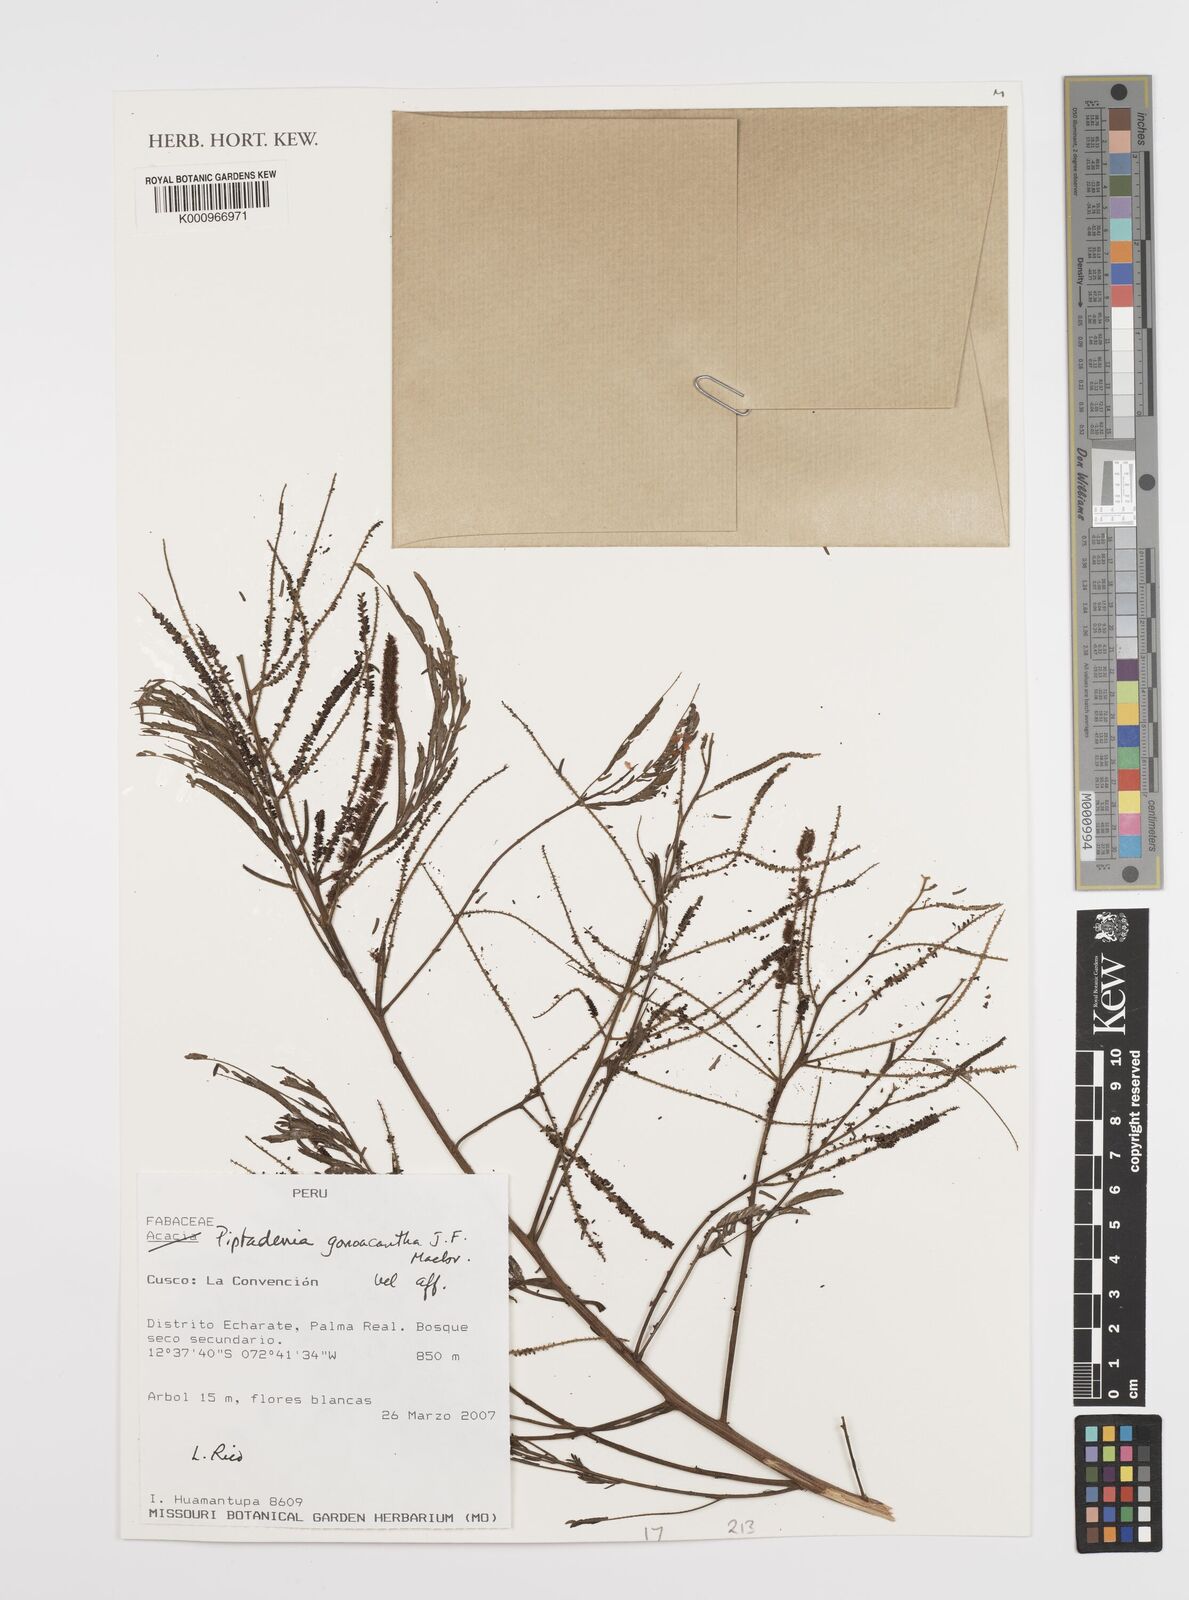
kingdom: Plantae
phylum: Tracheophyta
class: Magnoliopsida
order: Fabales
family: Fabaceae
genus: Piptadenia
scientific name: Piptadenia gonoacantha
